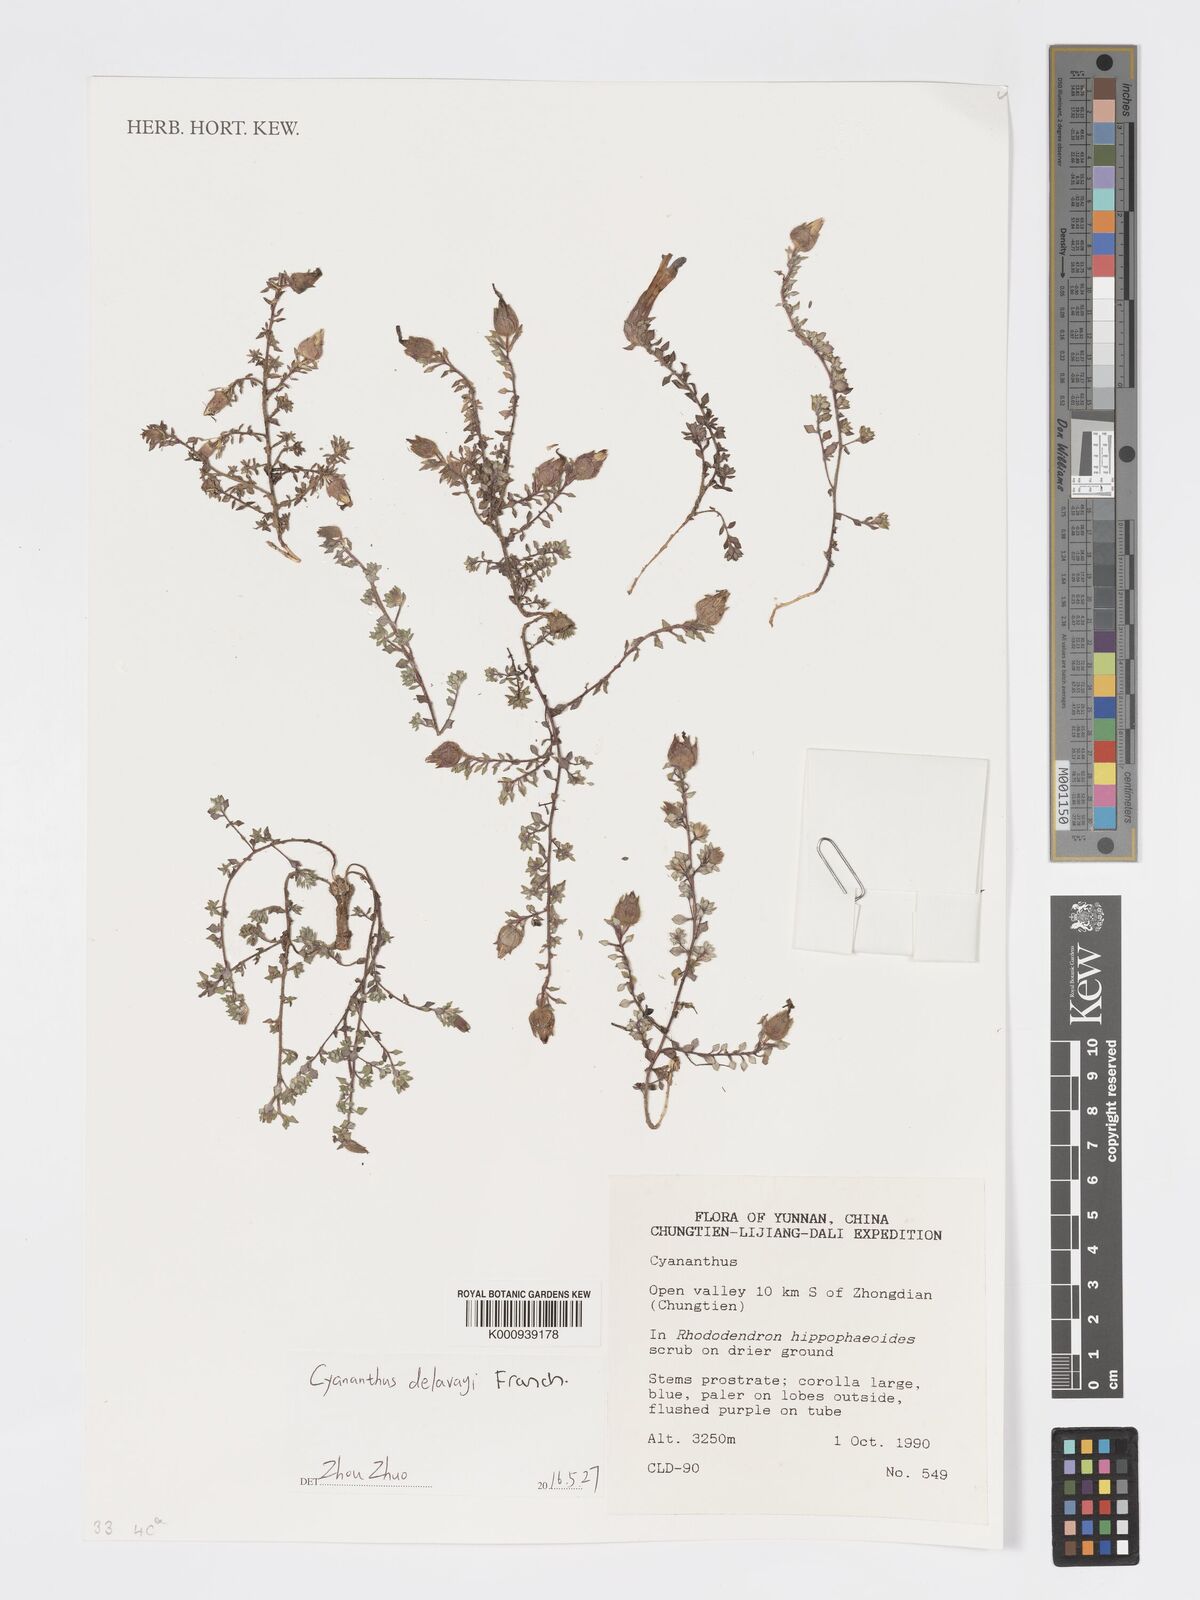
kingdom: Plantae
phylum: Tracheophyta
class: Magnoliopsida
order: Asterales
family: Campanulaceae
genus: Cyananthus
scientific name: Cyananthus delavayi
